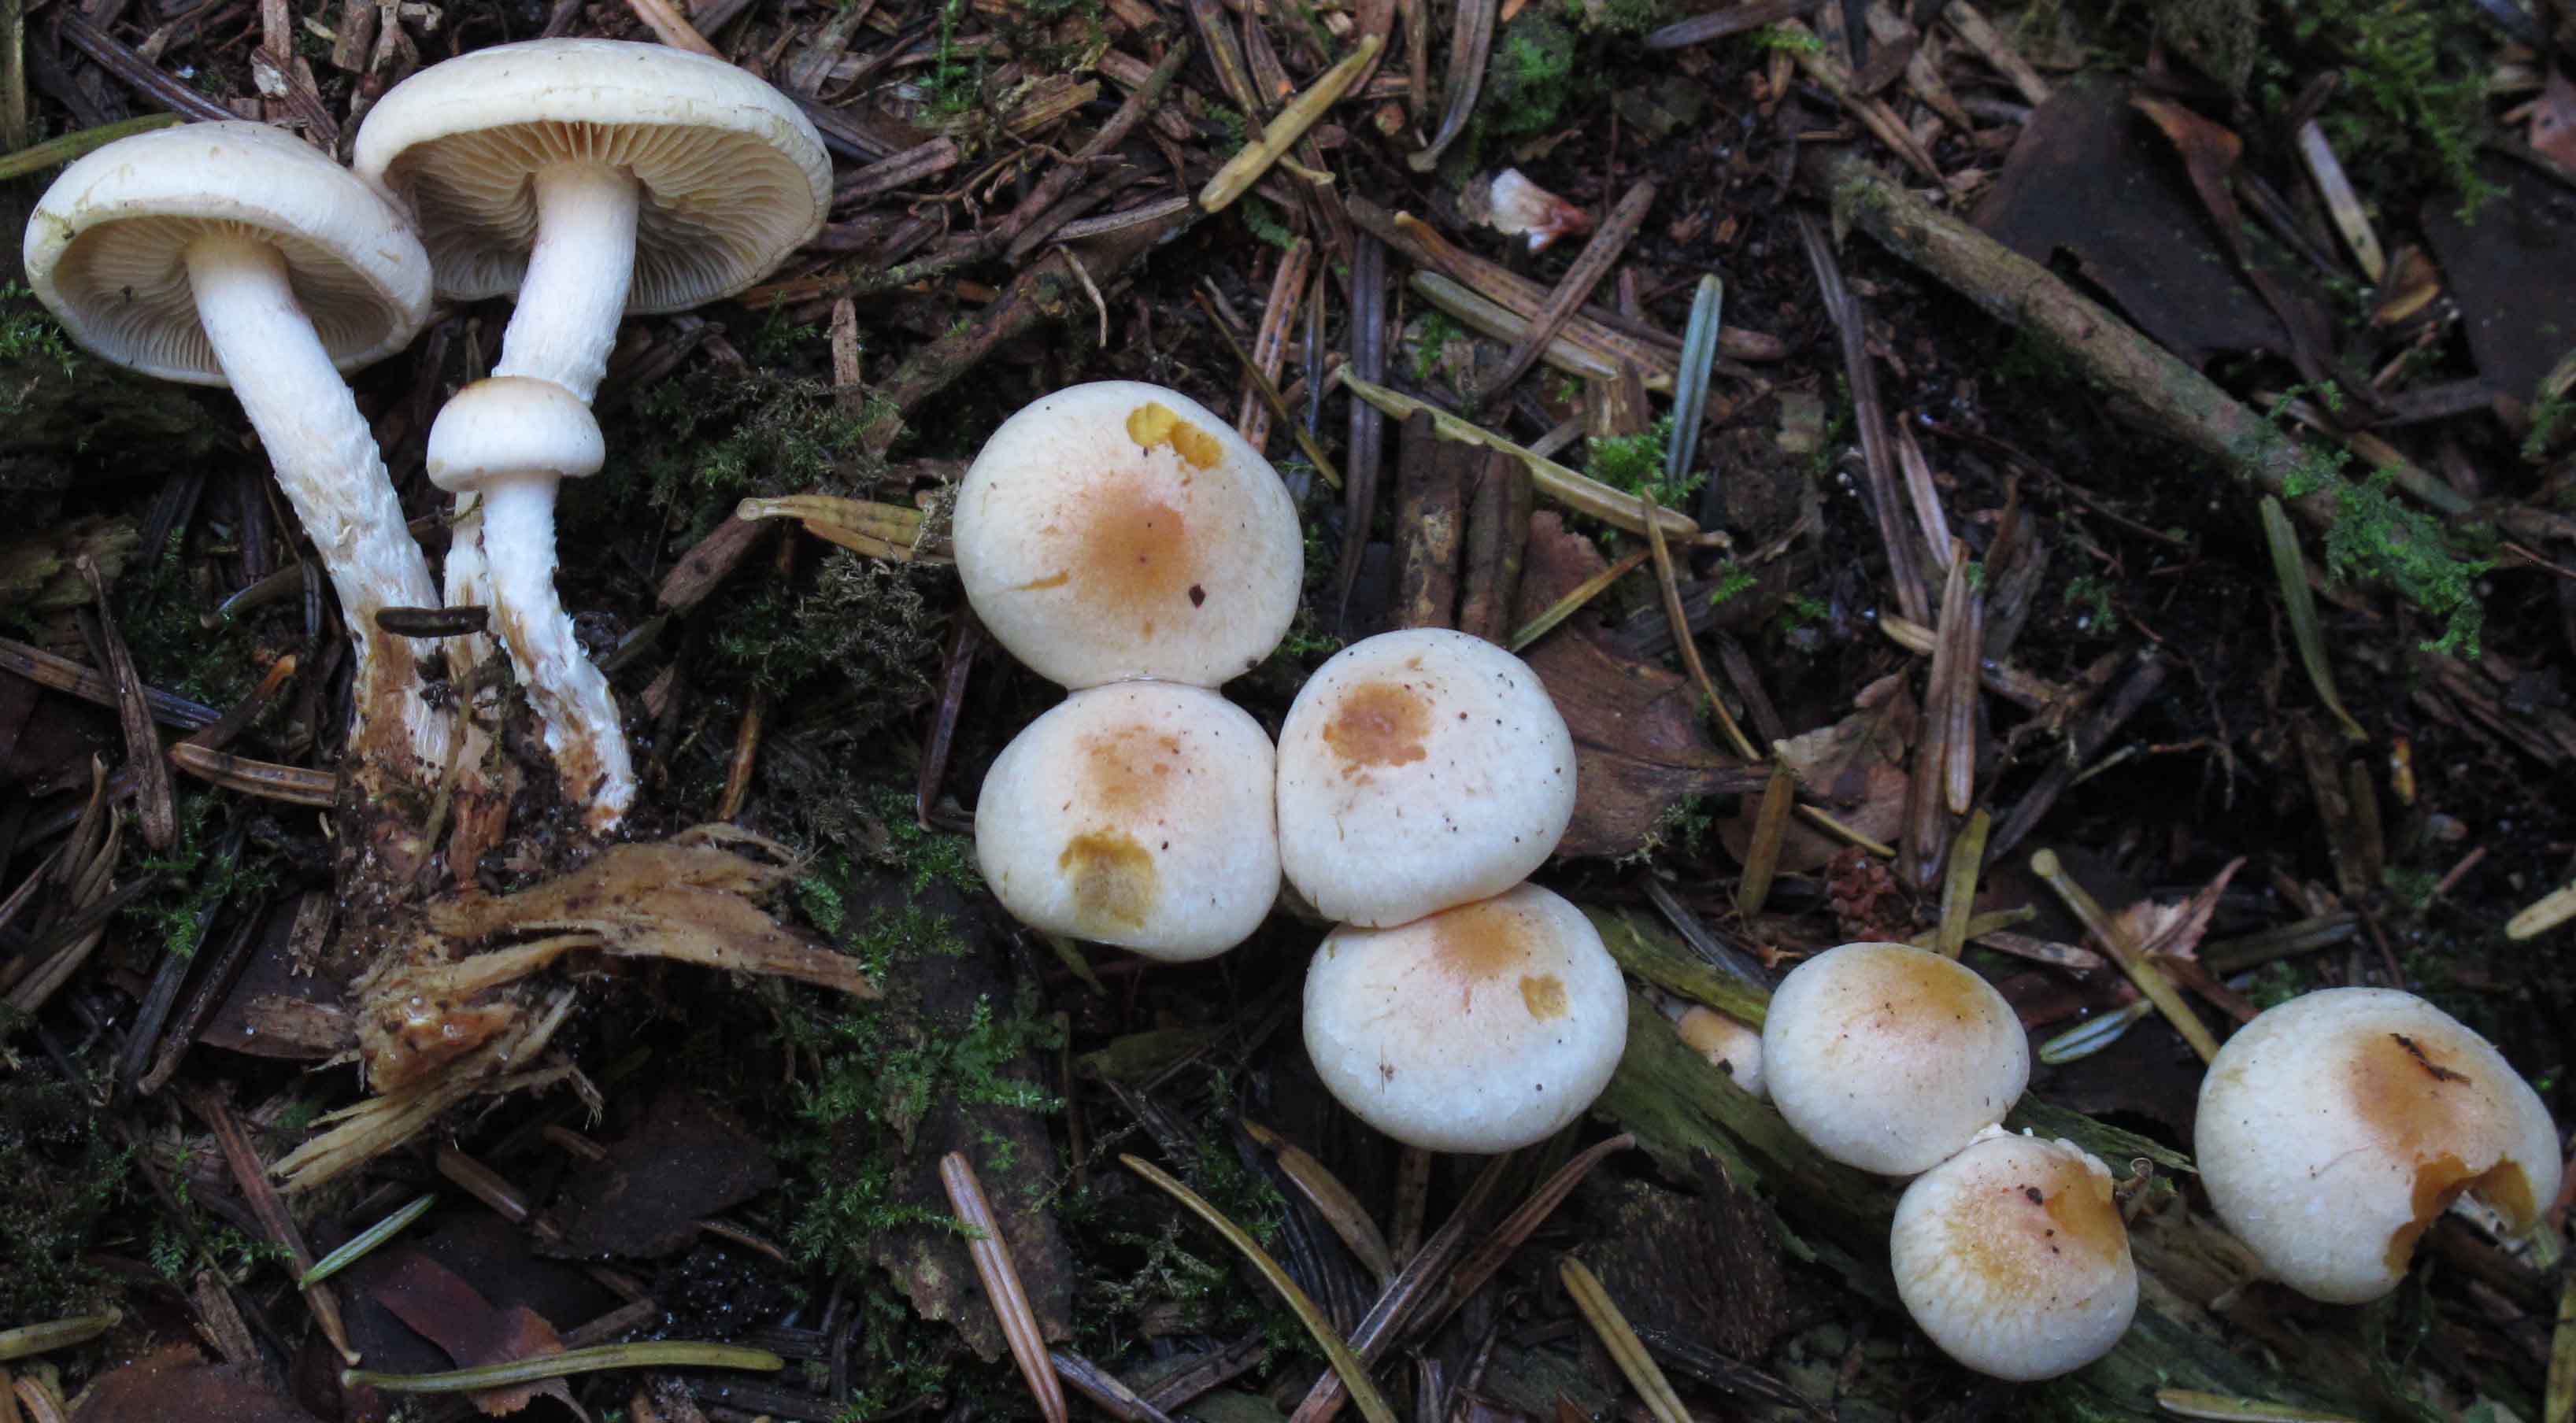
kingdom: Fungi
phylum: Basidiomycota
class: Agaricomycetes
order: Agaricales
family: Strophariaceae
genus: Pyrrhulomyces
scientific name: Pyrrhulomyces astragalinus
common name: safran-skælhat
